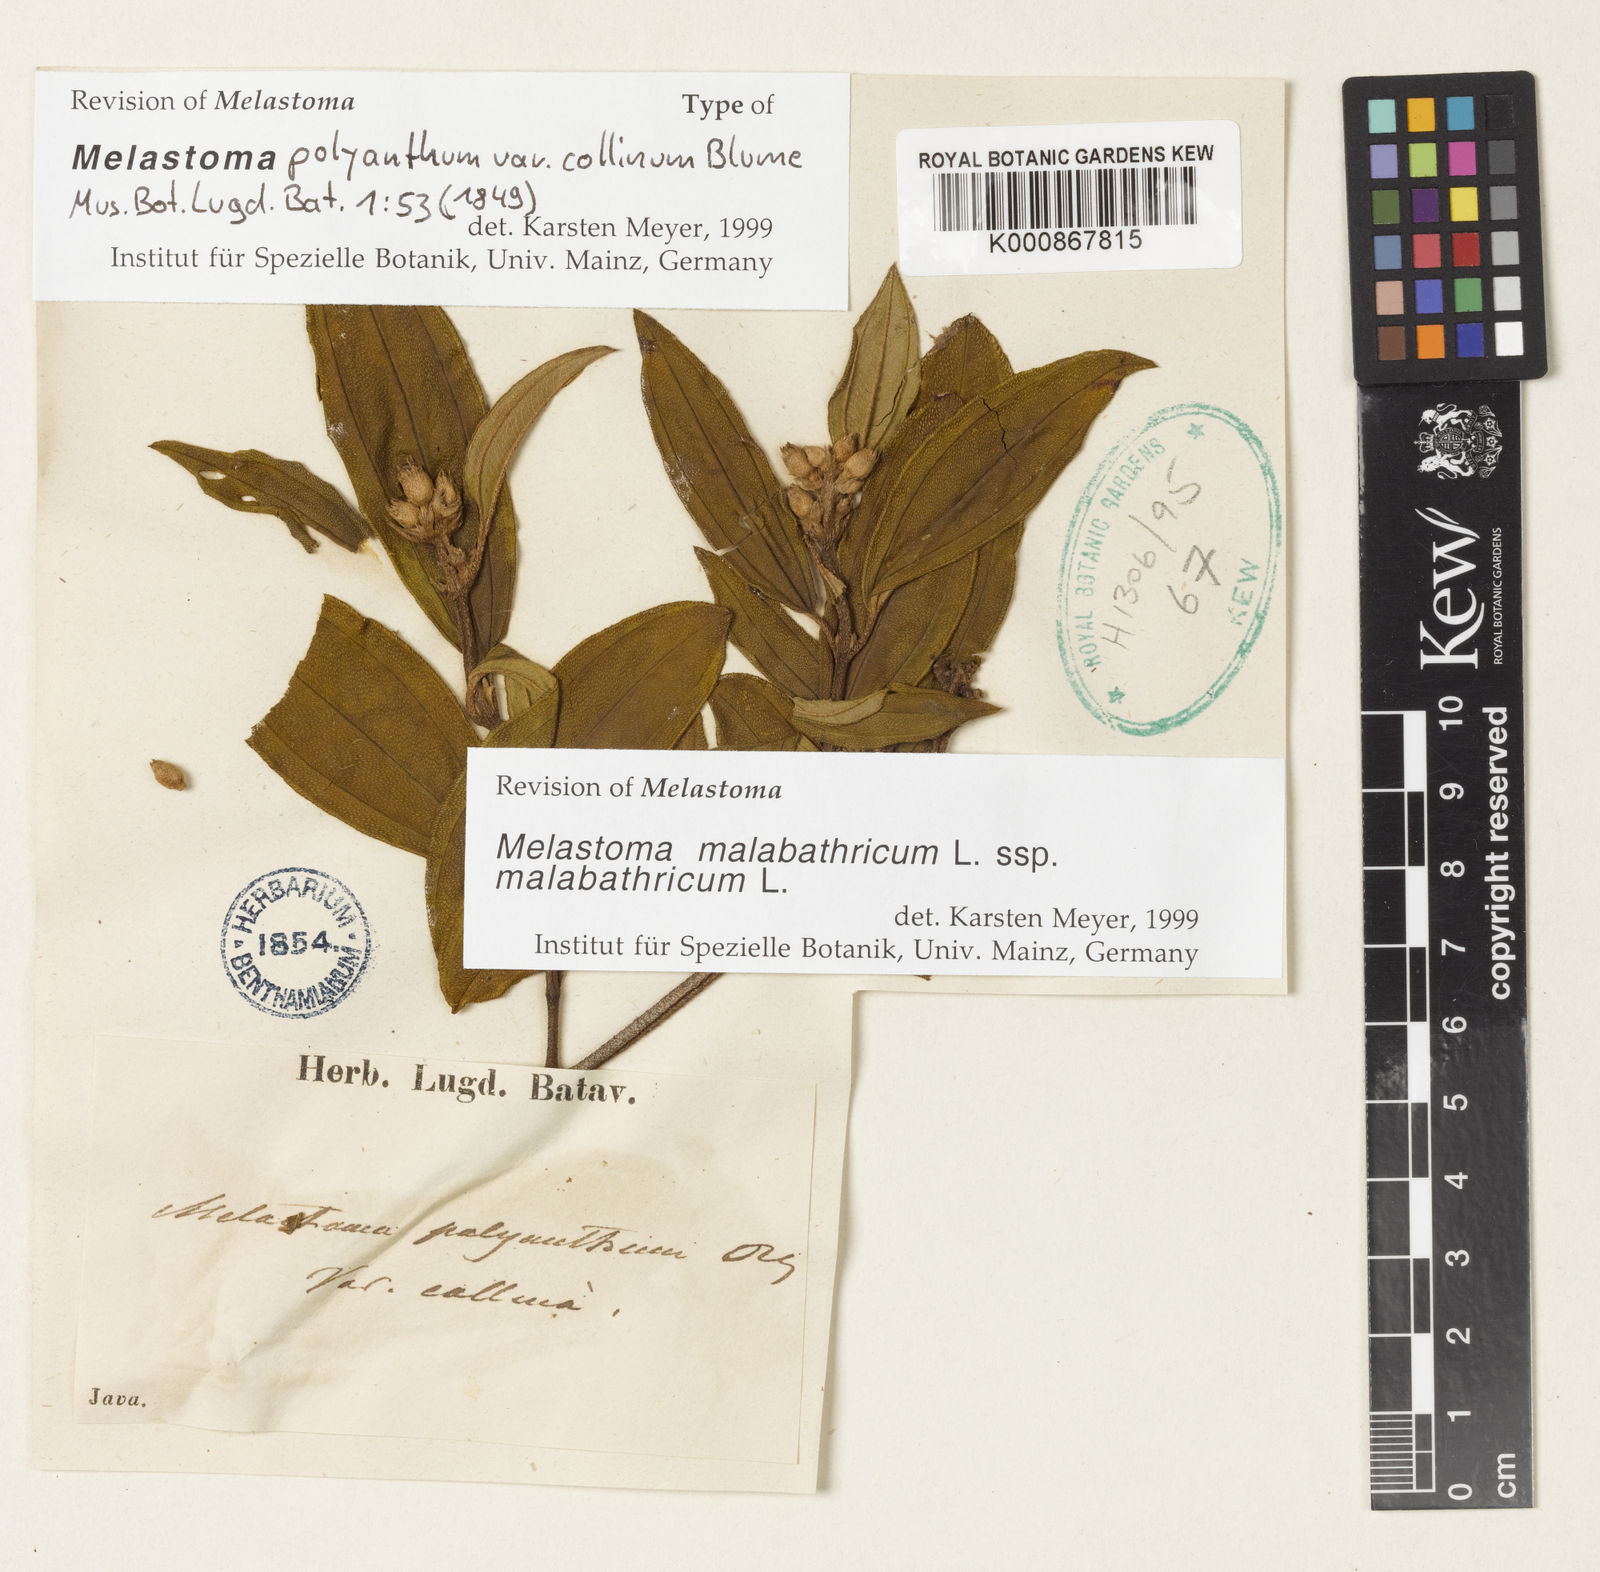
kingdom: Plantae
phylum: Tracheophyta
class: Magnoliopsida
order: Myrtales
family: Melastomataceae
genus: Melastoma
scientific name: Melastoma malabathricum
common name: Indian-rhododendron
